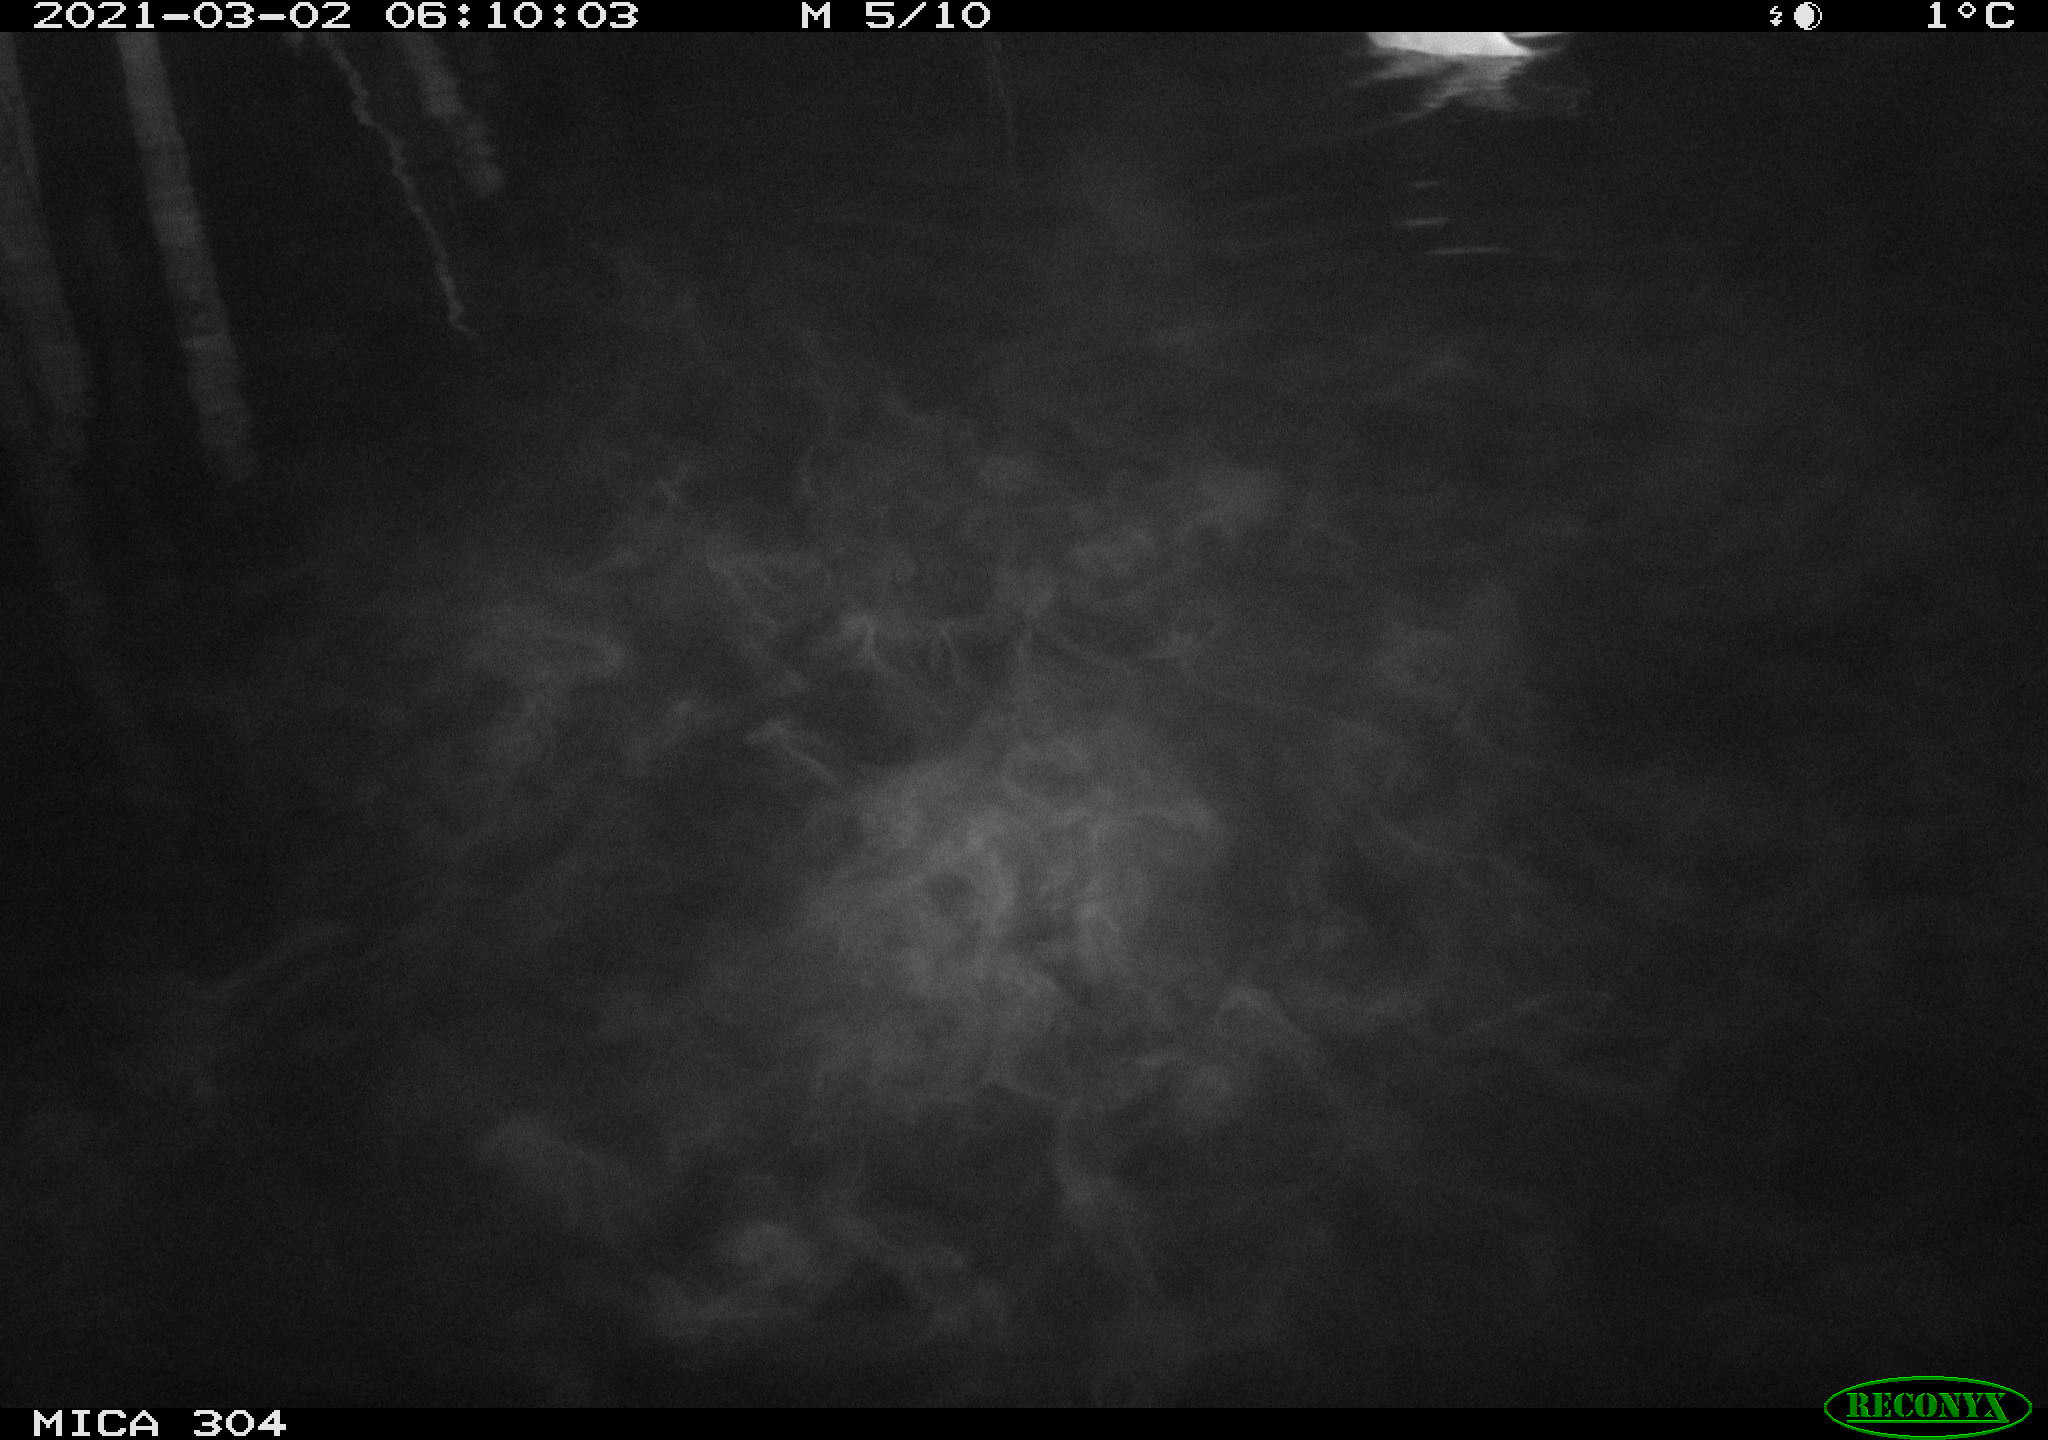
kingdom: Animalia
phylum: Chordata
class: Aves
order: Anseriformes
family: Anatidae
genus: Anas
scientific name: Anas platyrhynchos
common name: Mallard
